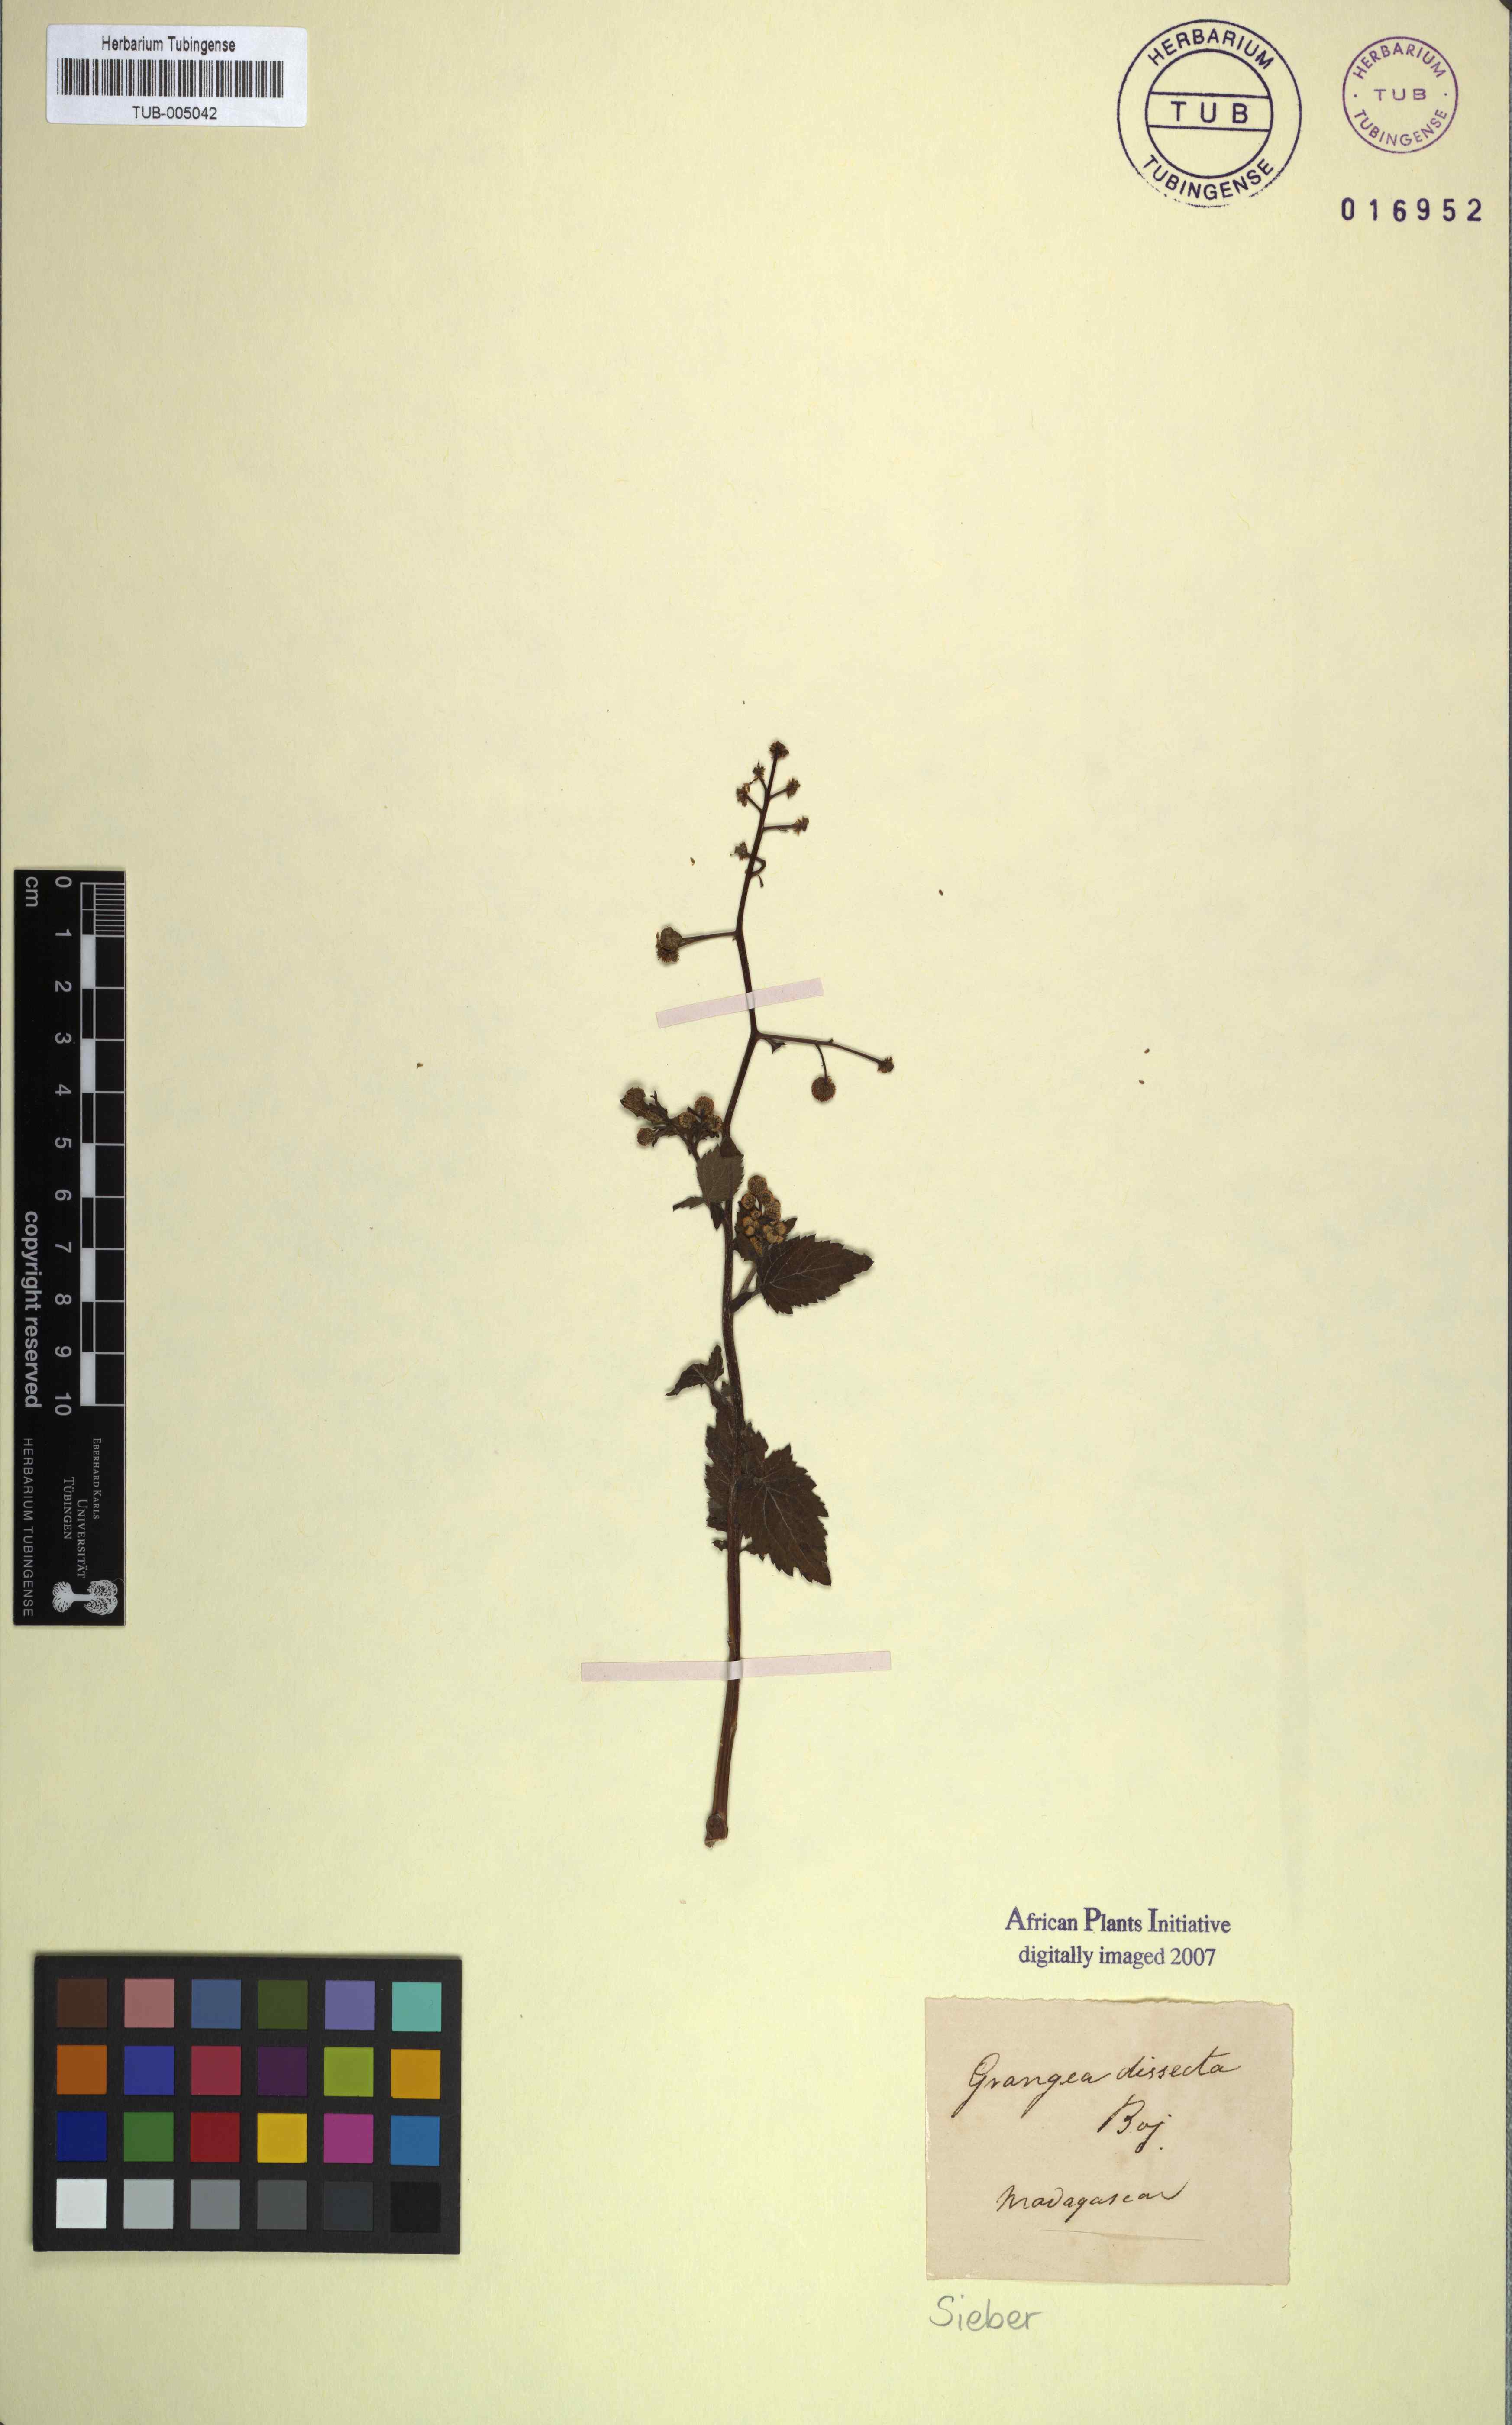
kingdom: Plantae
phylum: Tracheophyta
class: Magnoliopsida
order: Asterales
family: Asteraceae
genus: Dichrocephala
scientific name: Dichrocephala integrifolia
